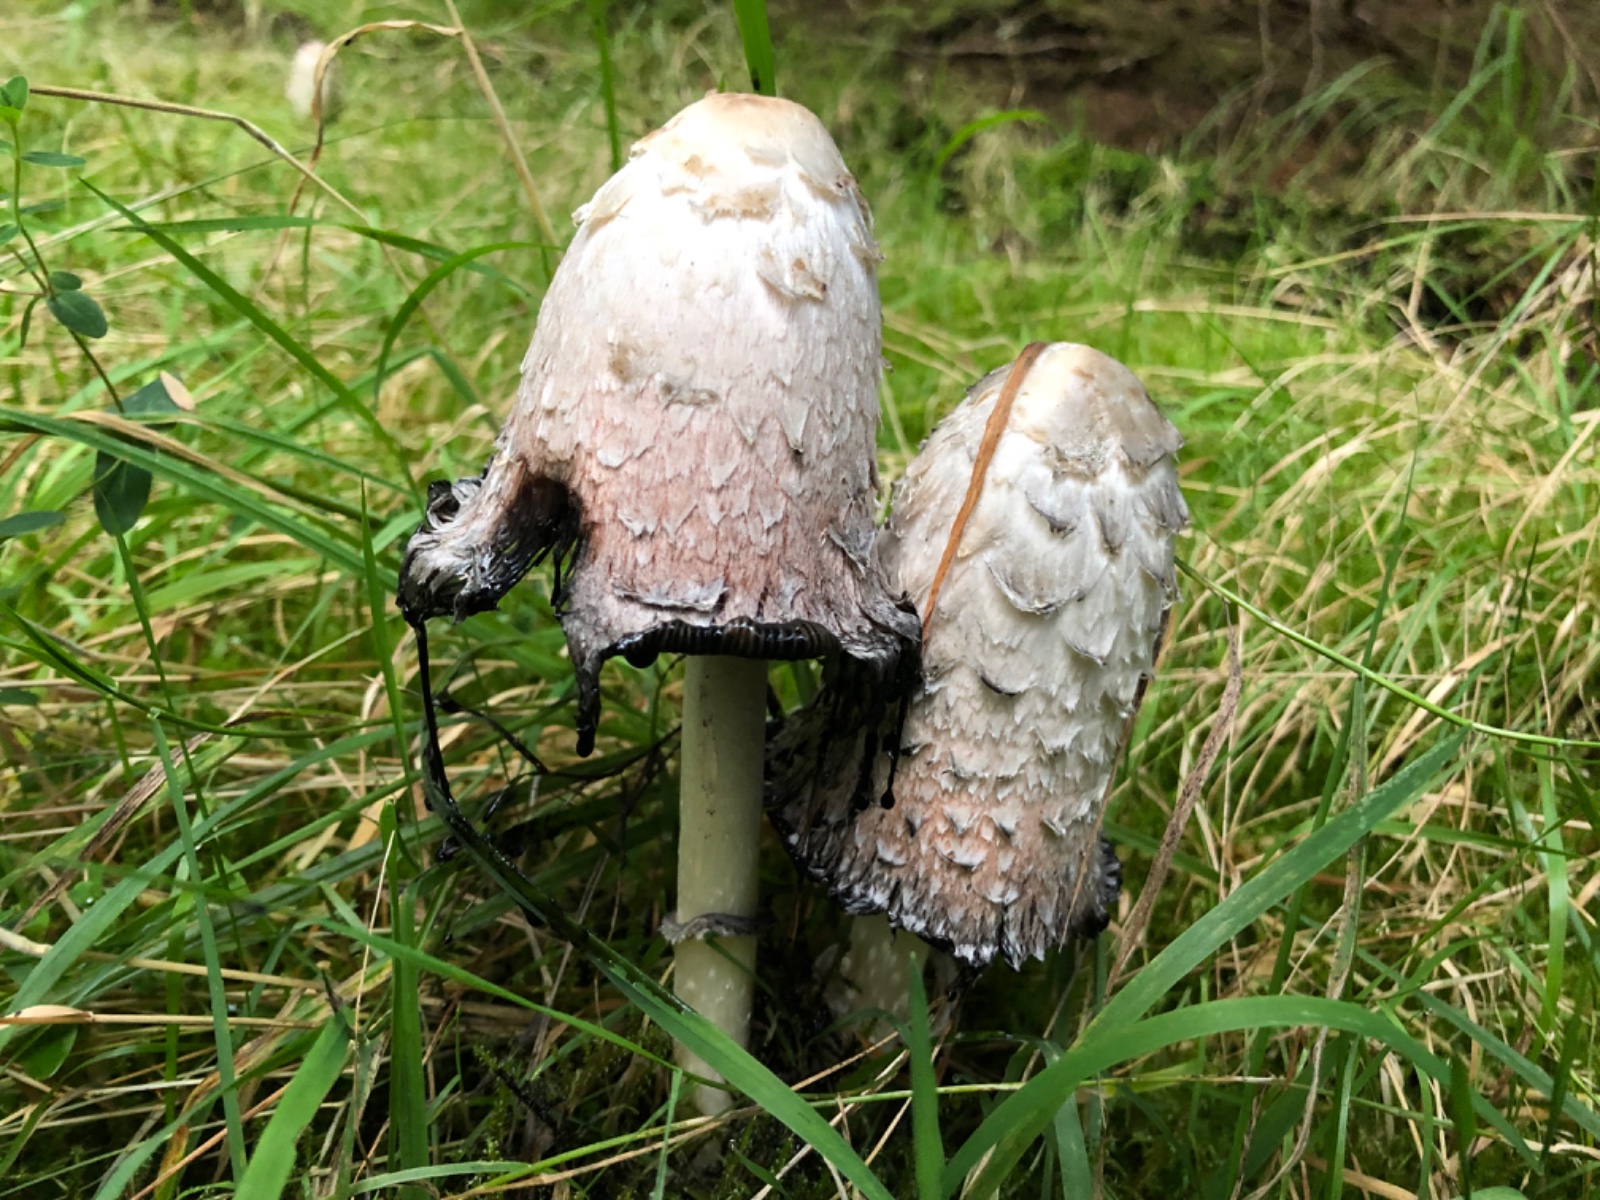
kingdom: Fungi
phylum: Basidiomycota
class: Agaricomycetes
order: Agaricales
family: Agaricaceae
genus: Coprinus
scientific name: Coprinus comatus
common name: stor parykhat
